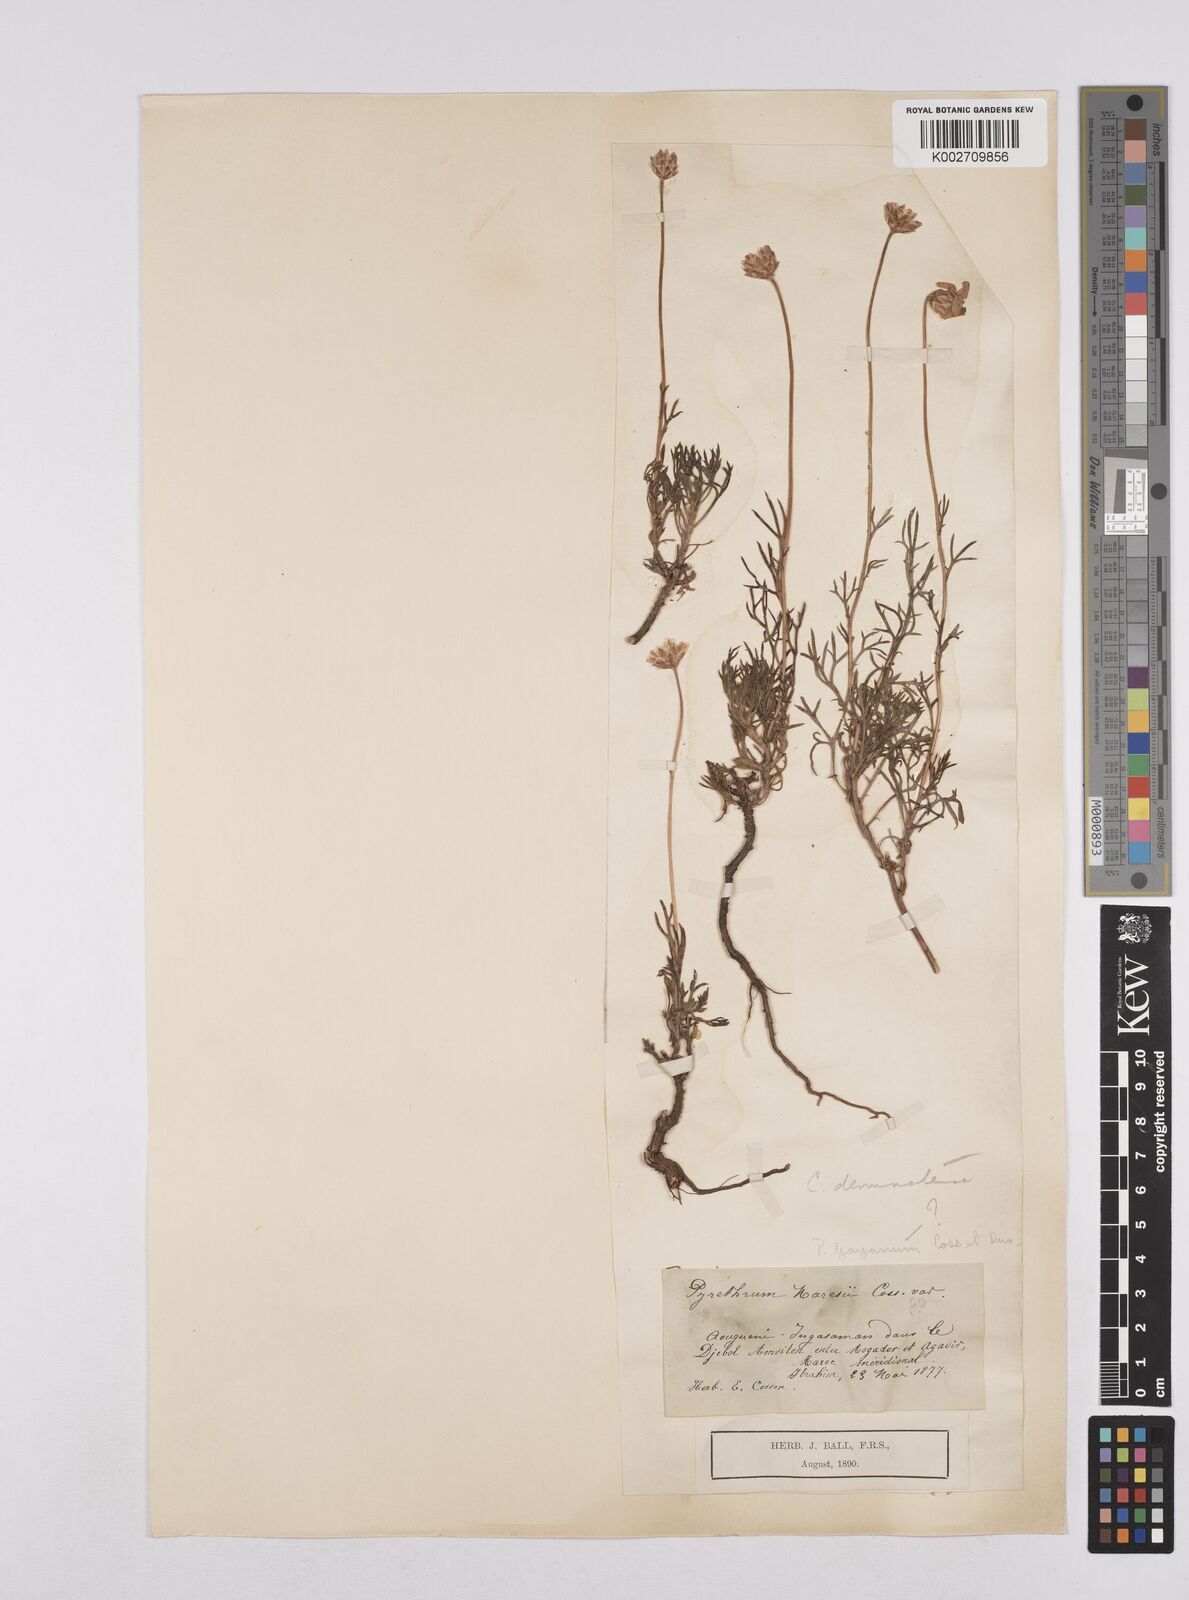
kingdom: Plantae
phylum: Tracheophyta
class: Magnoliopsida
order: Asterales
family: Asteraceae
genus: Rhodanthemum
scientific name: Rhodanthemum gayanum
